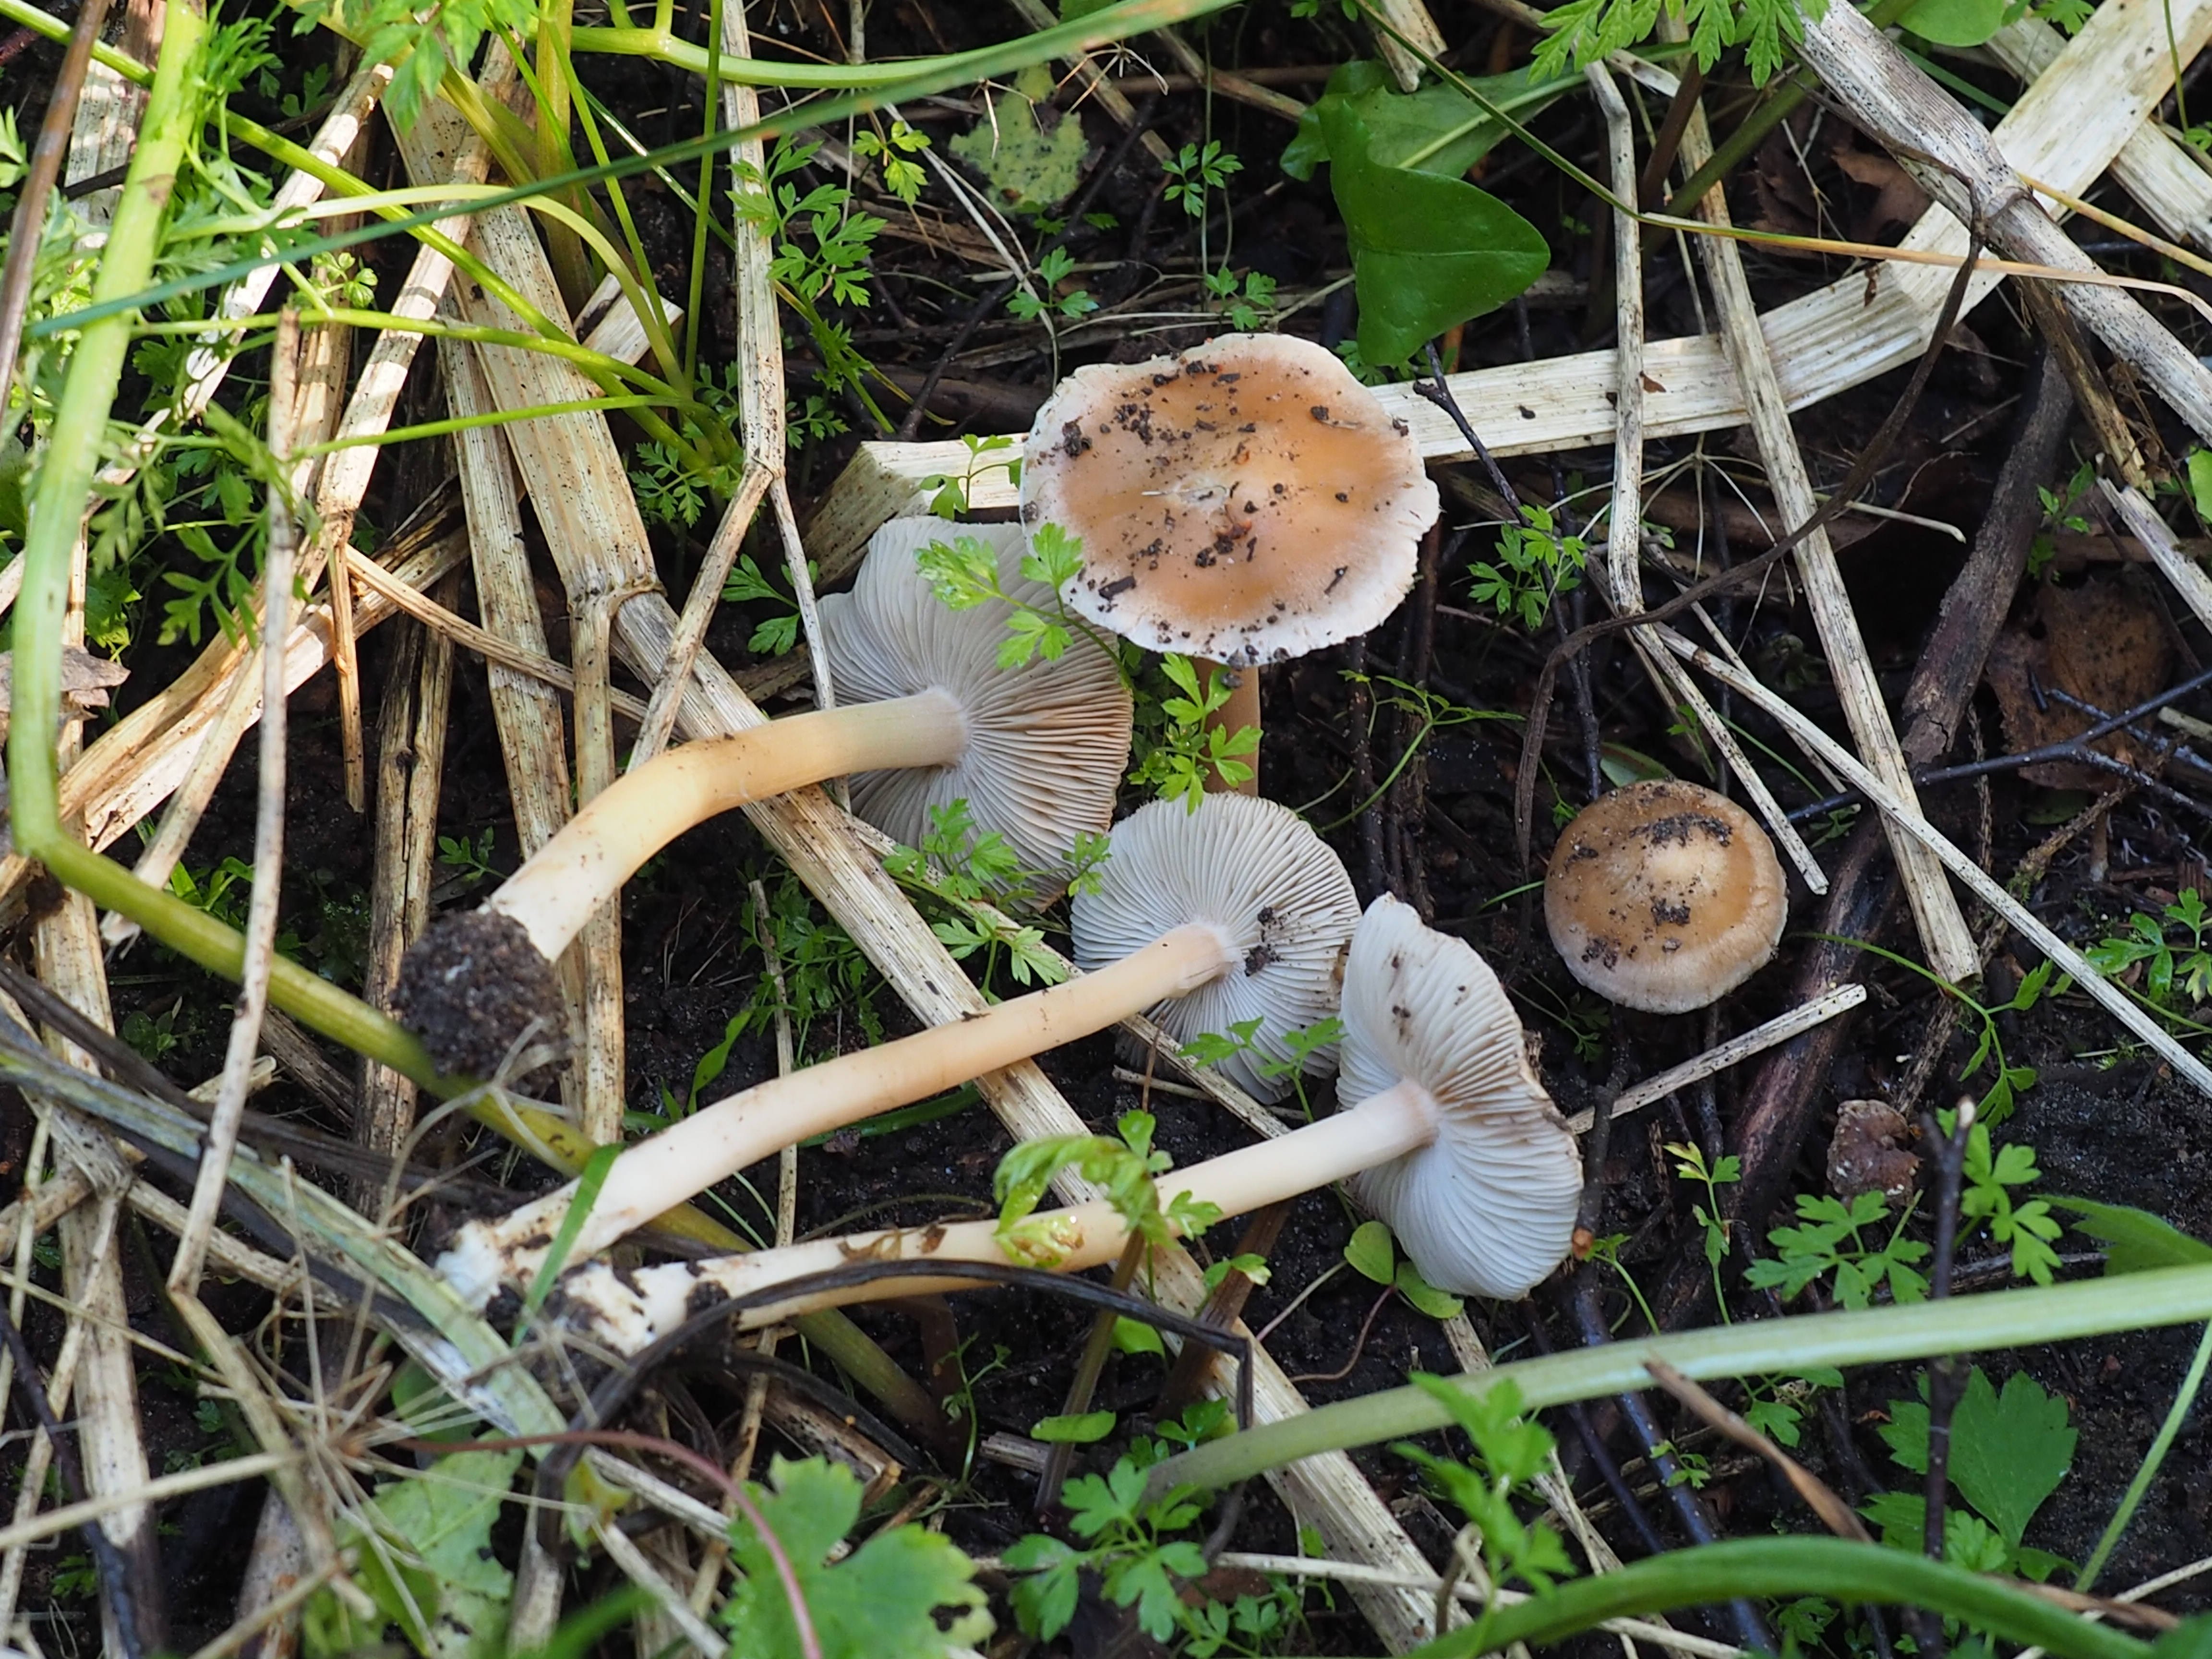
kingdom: Fungi
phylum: Basidiomycota
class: Agaricomycetes
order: Agaricales
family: Inocybaceae
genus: Inocybe
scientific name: Inocybe grammata
